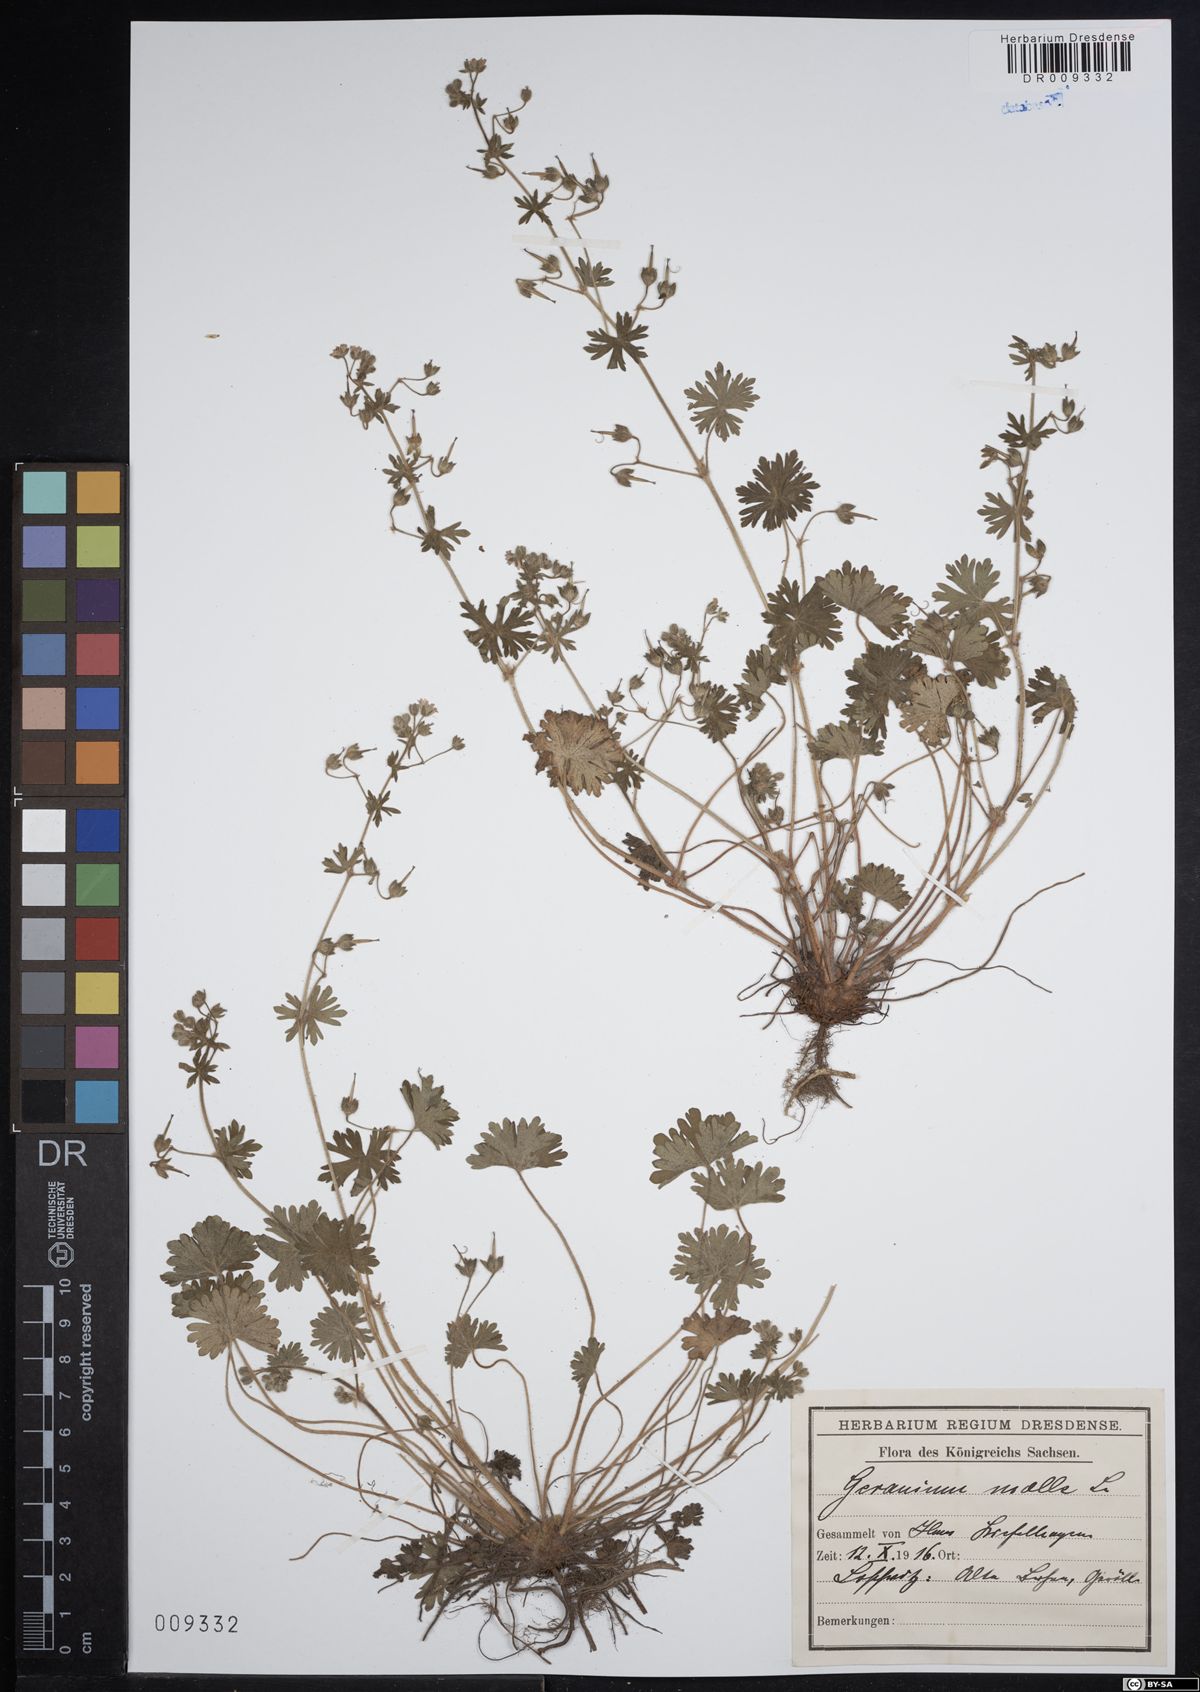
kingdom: Plantae
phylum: Tracheophyta
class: Magnoliopsida
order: Geraniales
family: Geraniaceae
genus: Geranium
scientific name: Geranium molle
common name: Dove's-foot crane's-bill
